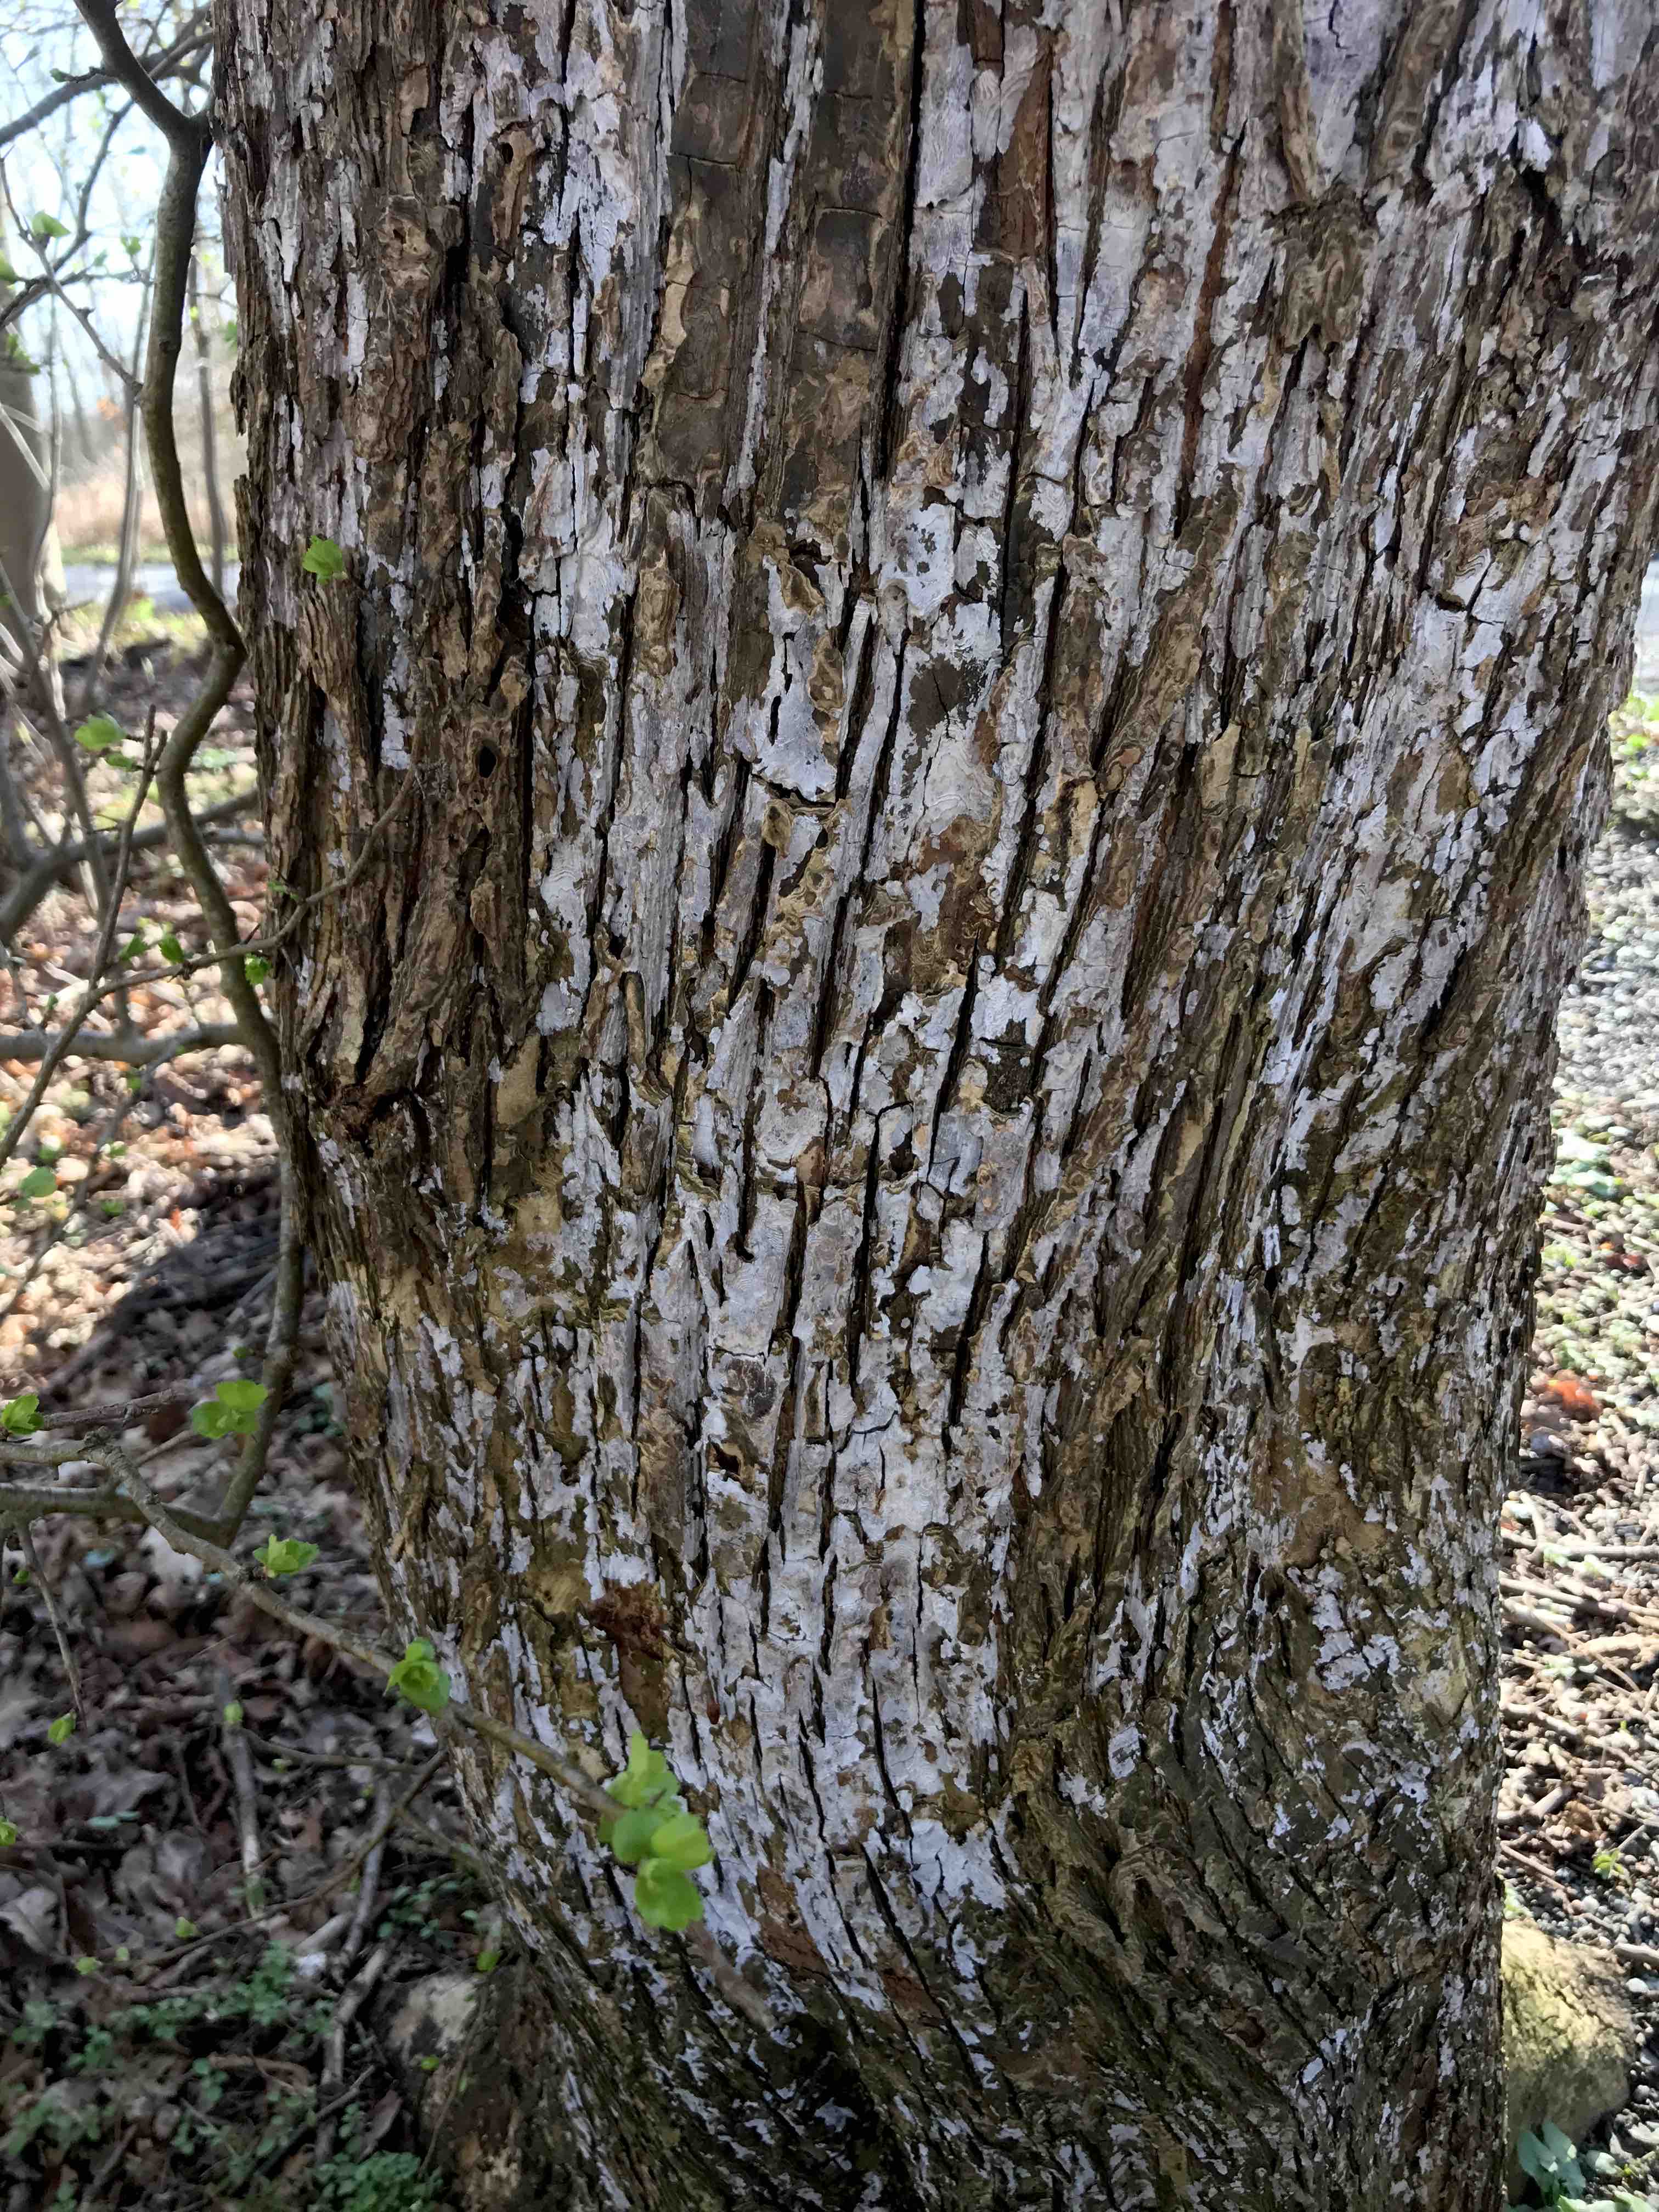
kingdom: Fungi
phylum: Basidiomycota
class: Agaricomycetes
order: Agaricales
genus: Dendrothele
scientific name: Dendrothele acerina
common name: navr-kalkplet
